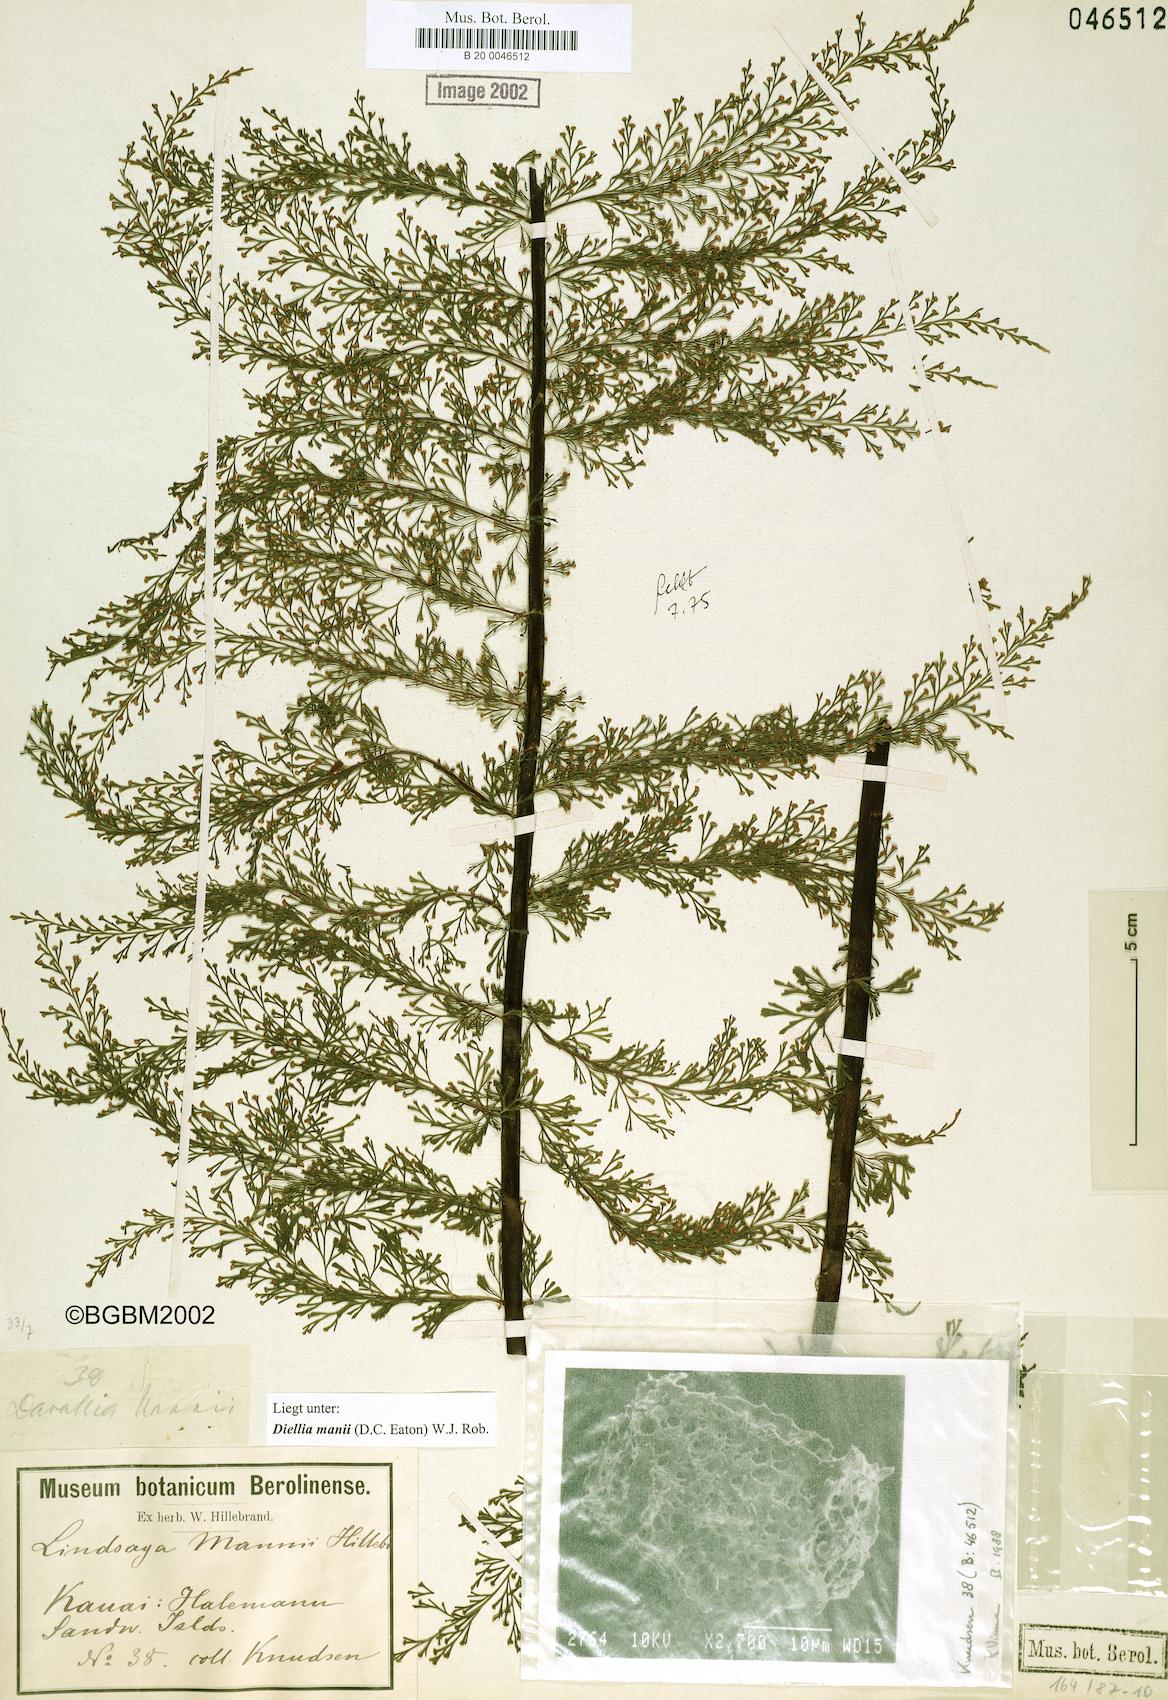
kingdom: Plantae
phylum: Tracheophyta
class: Polypodiopsida
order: Polypodiales
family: Aspleniaceae
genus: Asplenium
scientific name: Asplenium dielmannii
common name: Mann's island spleenwort
